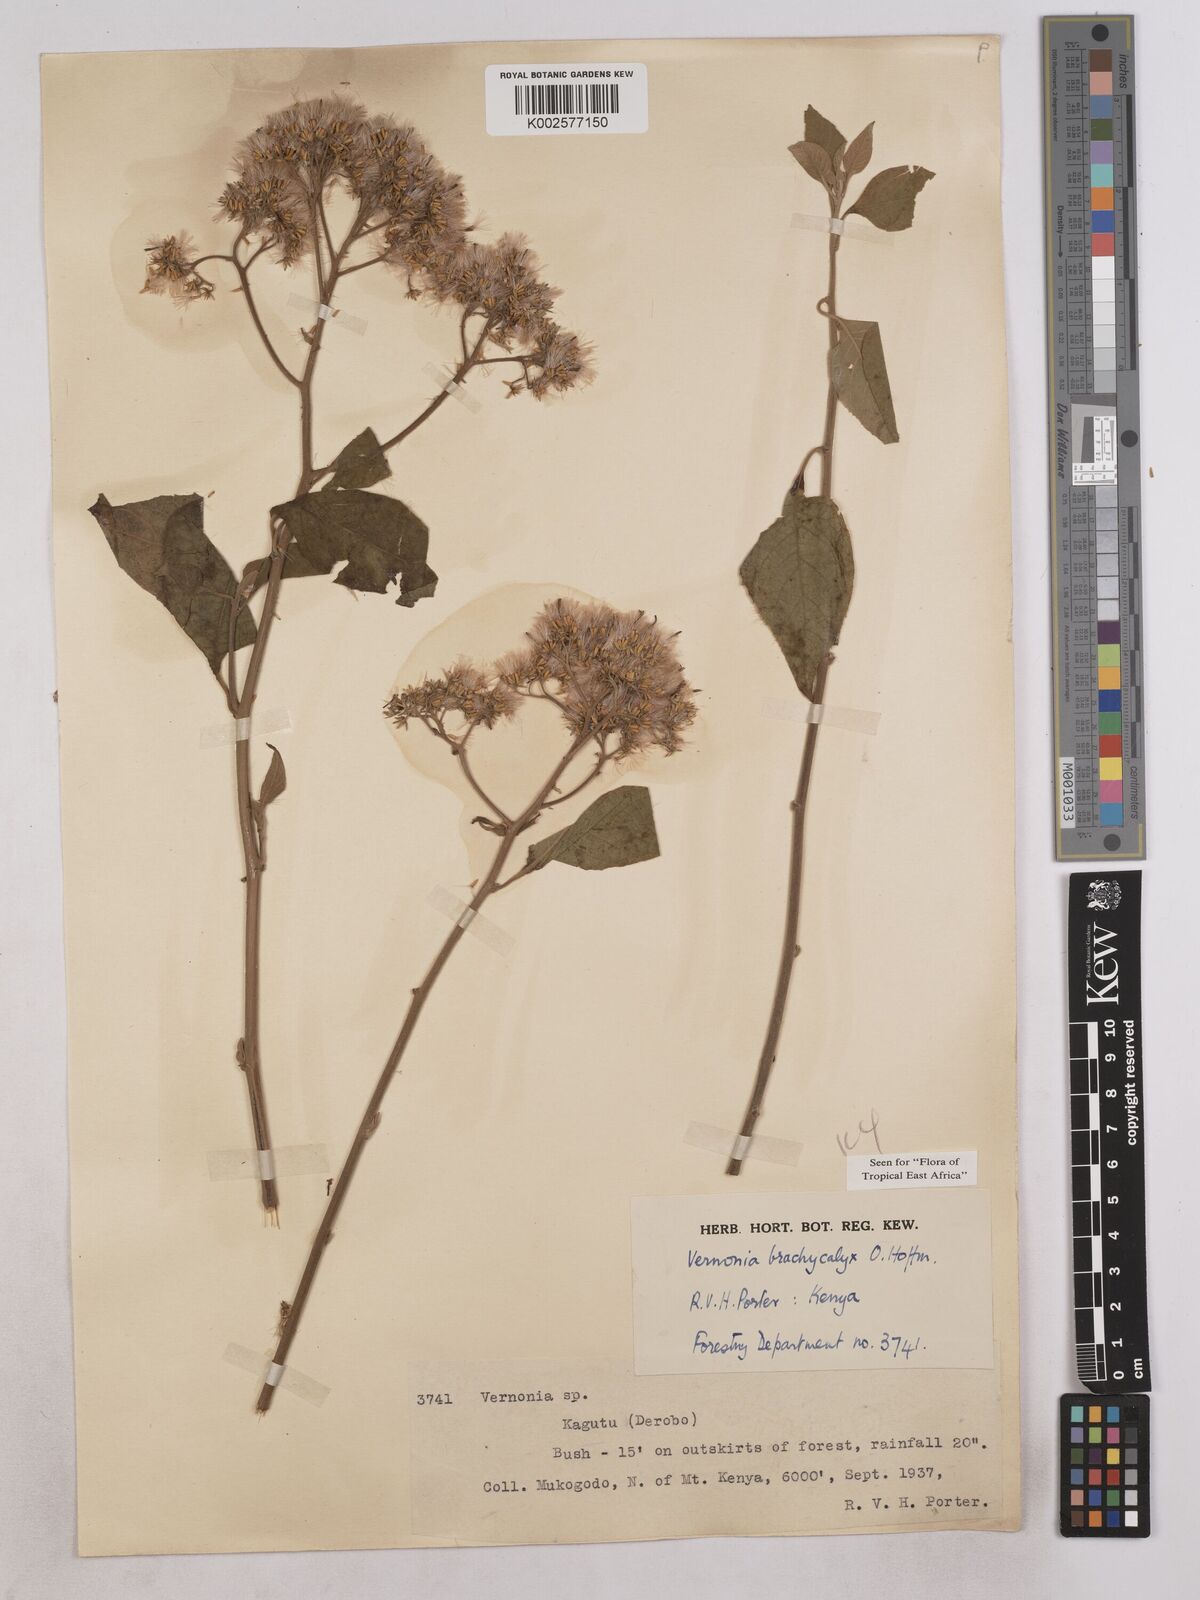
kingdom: Plantae
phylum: Tracheophyta
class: Magnoliopsida
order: Asterales
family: Asteraceae
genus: Hoffmannanthus
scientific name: Hoffmannanthus abbotianus
